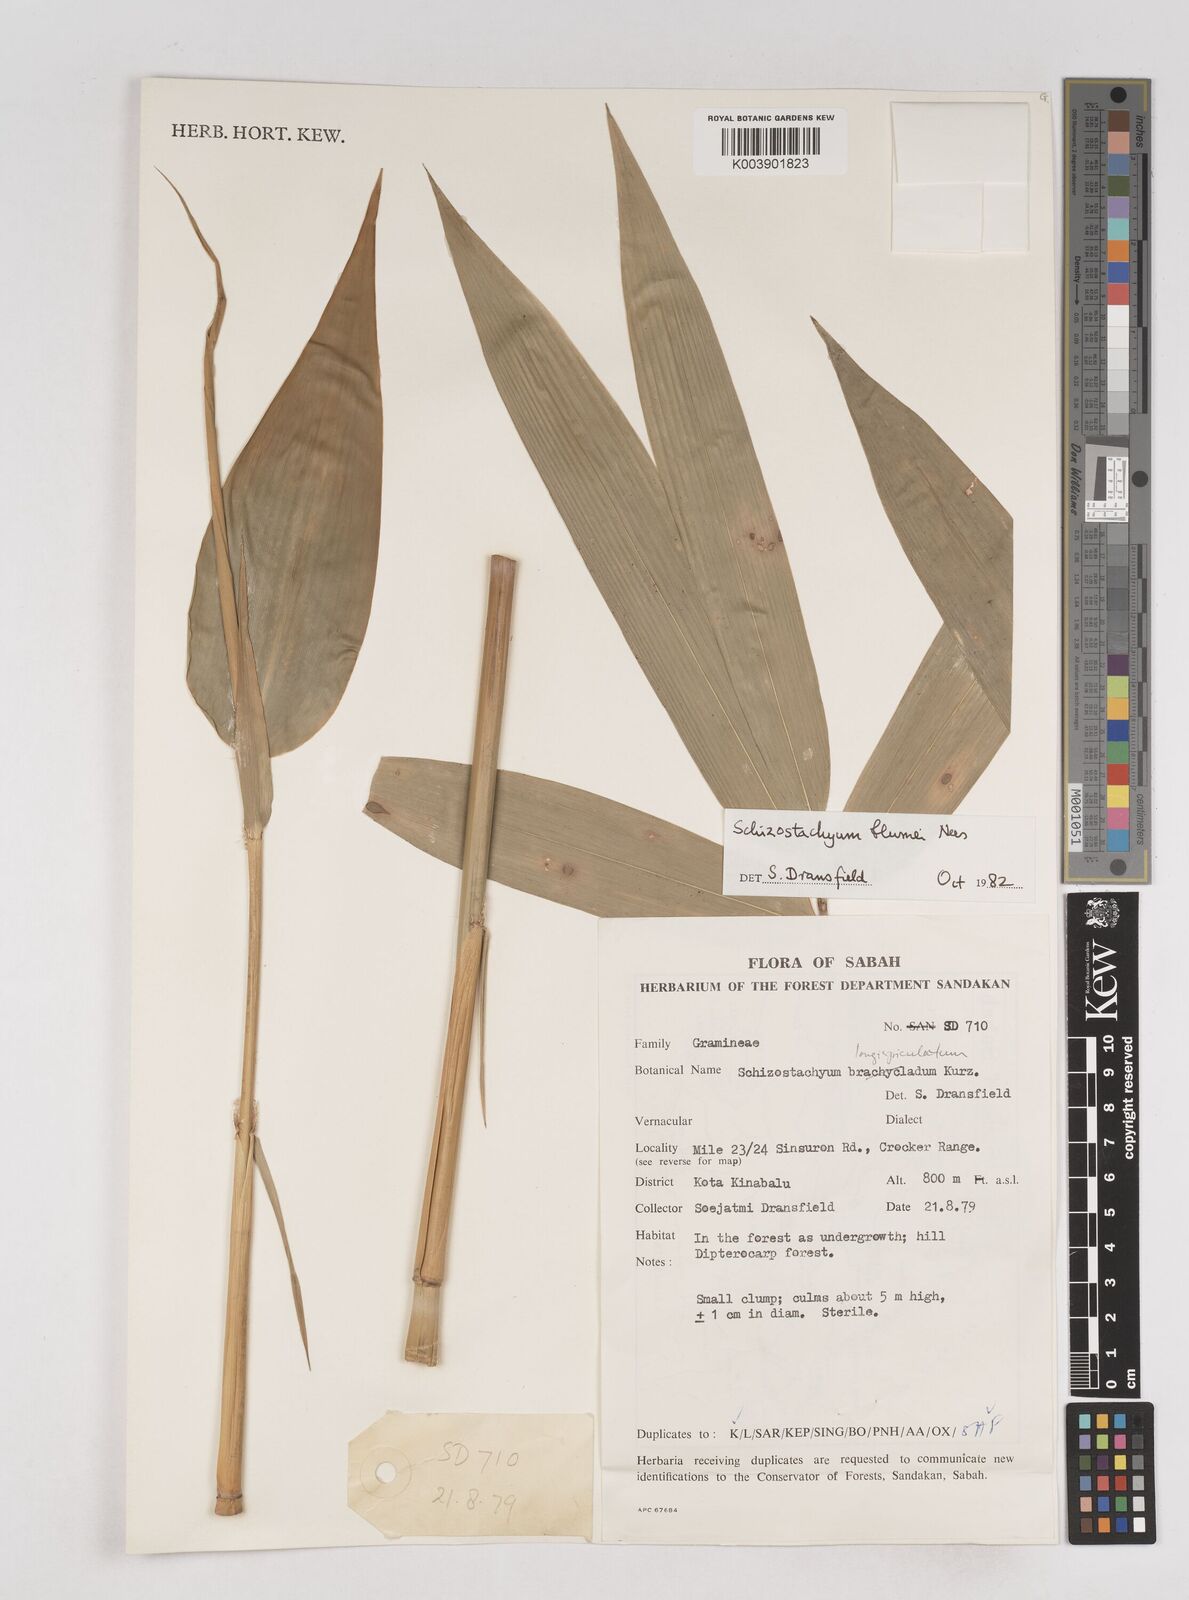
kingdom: Plantae
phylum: Tracheophyta
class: Liliopsida
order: Poales
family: Poaceae
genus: Schizostachyum
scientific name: Schizostachyum blumei
